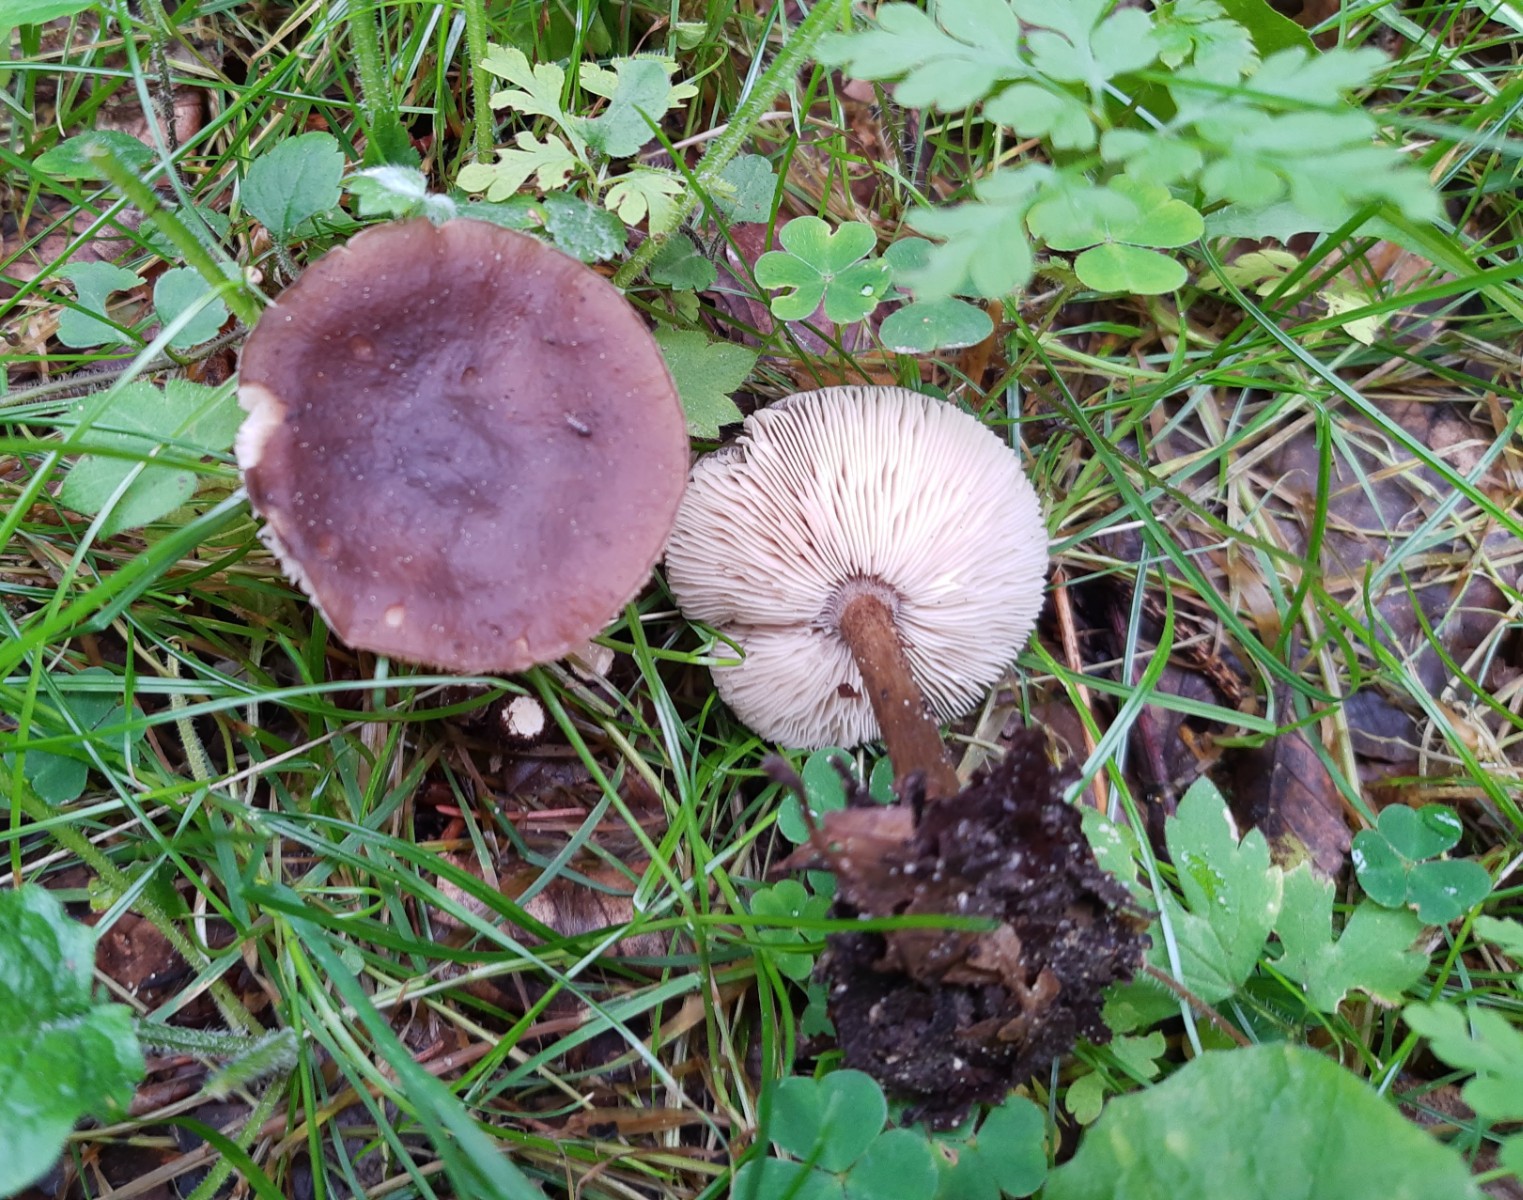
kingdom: Fungi
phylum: Basidiomycota
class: Agaricomycetes
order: Agaricales
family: Tricholomataceae
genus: Melanoleuca
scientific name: Melanoleuca polioleuca
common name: almindelig munkehat
